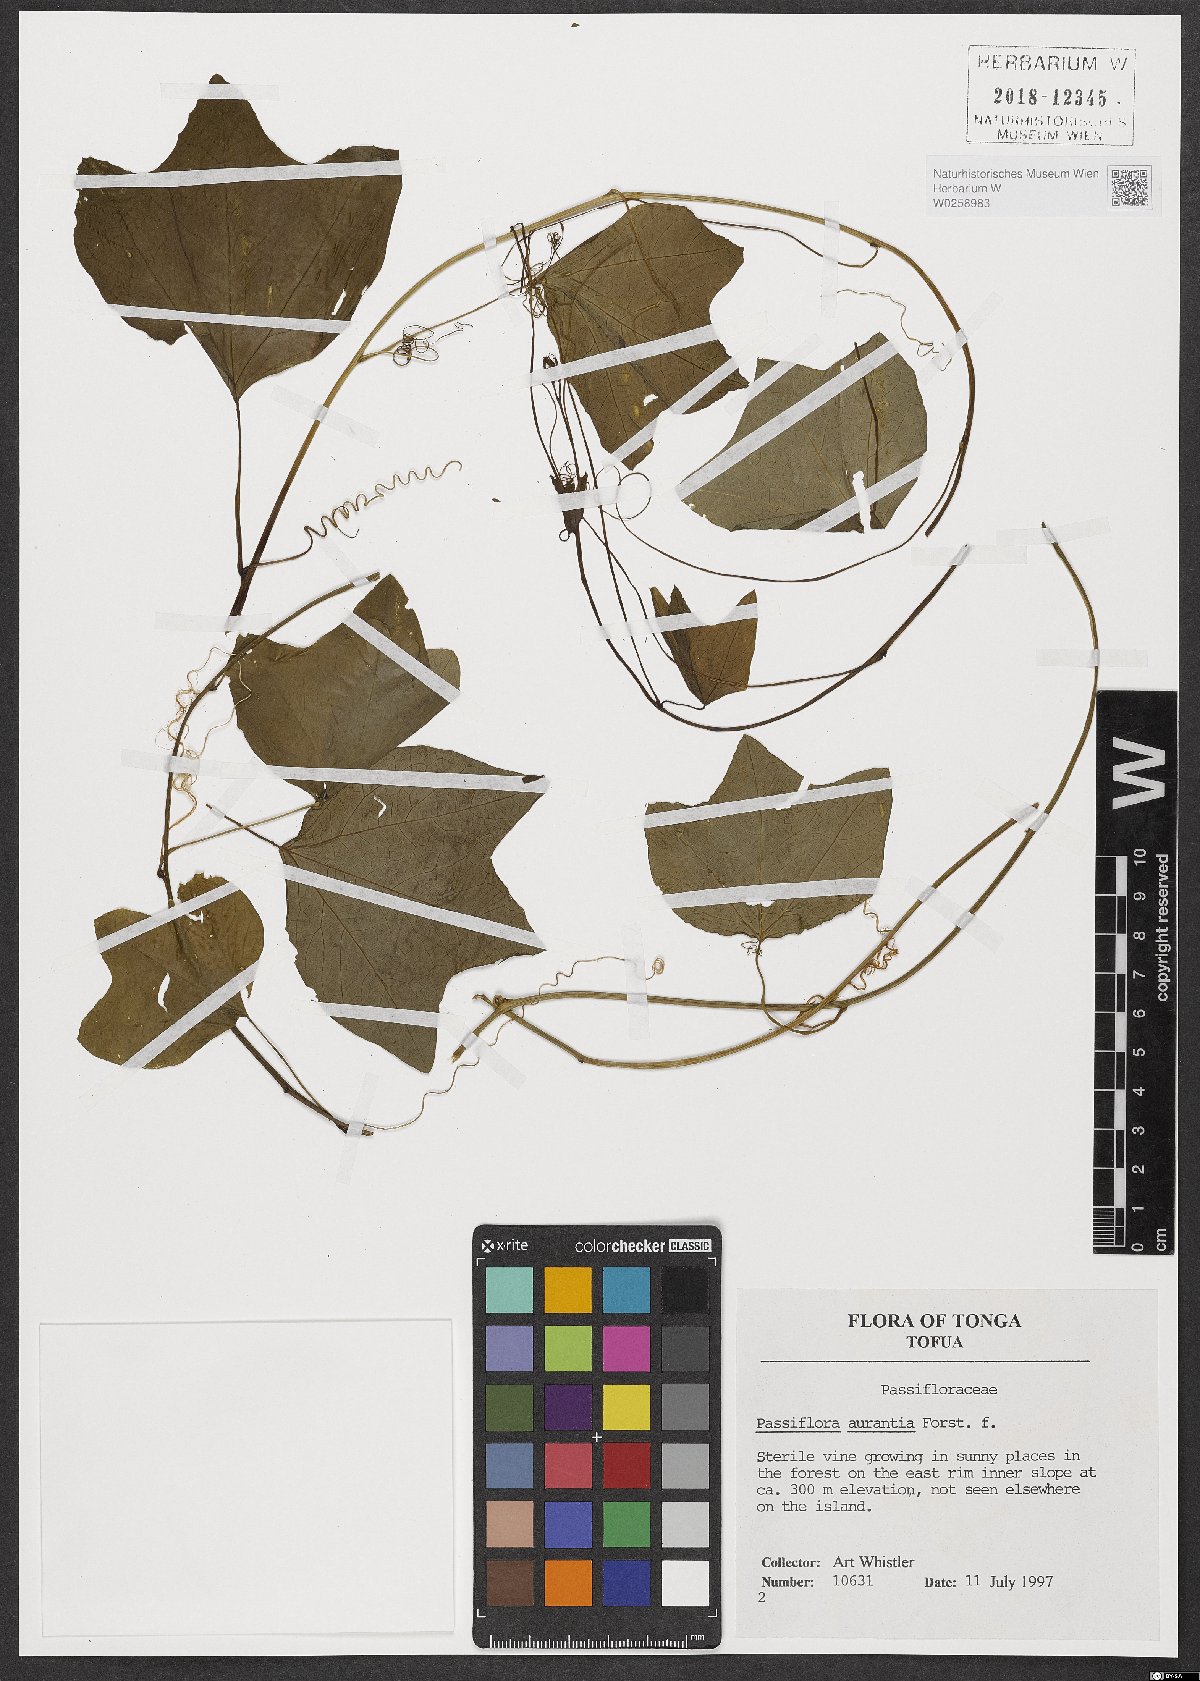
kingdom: Plantae
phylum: Tracheophyta
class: Magnoliopsida
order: Malpighiales
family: Passifloraceae
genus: Passiflora
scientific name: Passiflora aurantia
